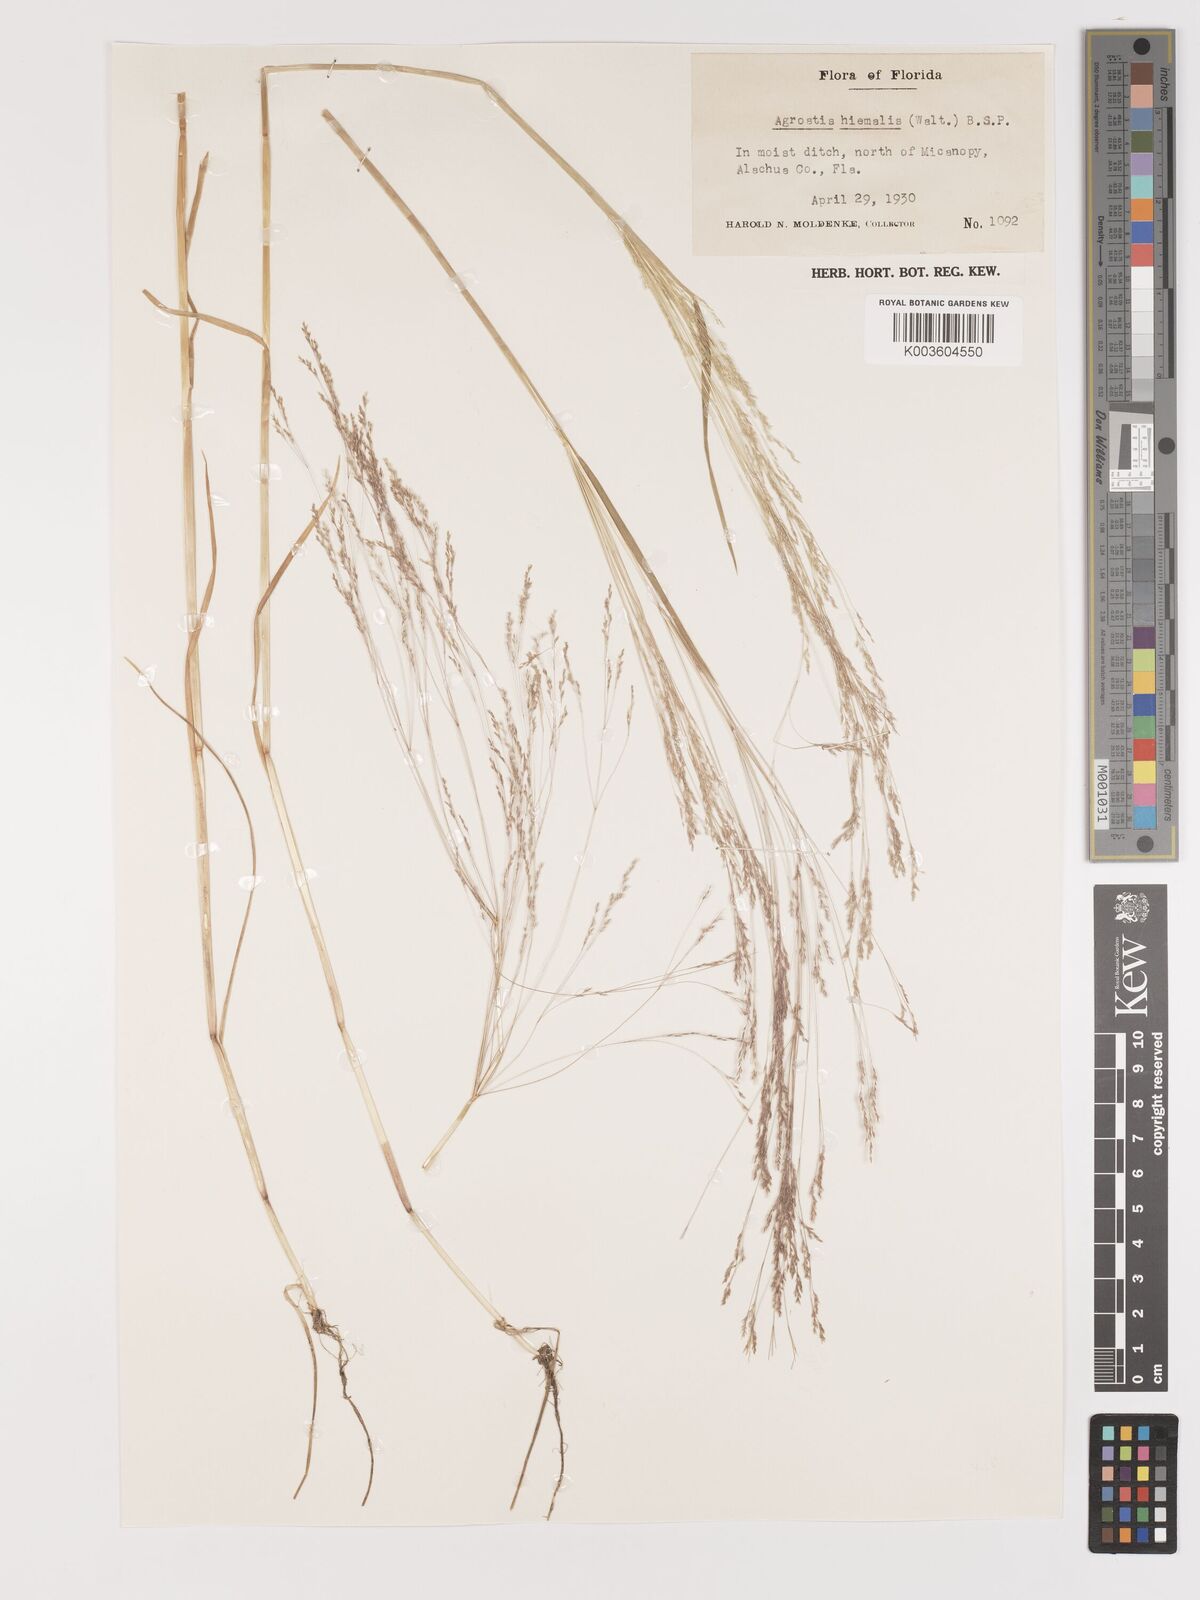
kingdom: Plantae
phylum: Tracheophyta
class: Liliopsida
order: Poales
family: Poaceae
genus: Agrostis
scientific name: Agrostis hyemalis
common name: Small bent
